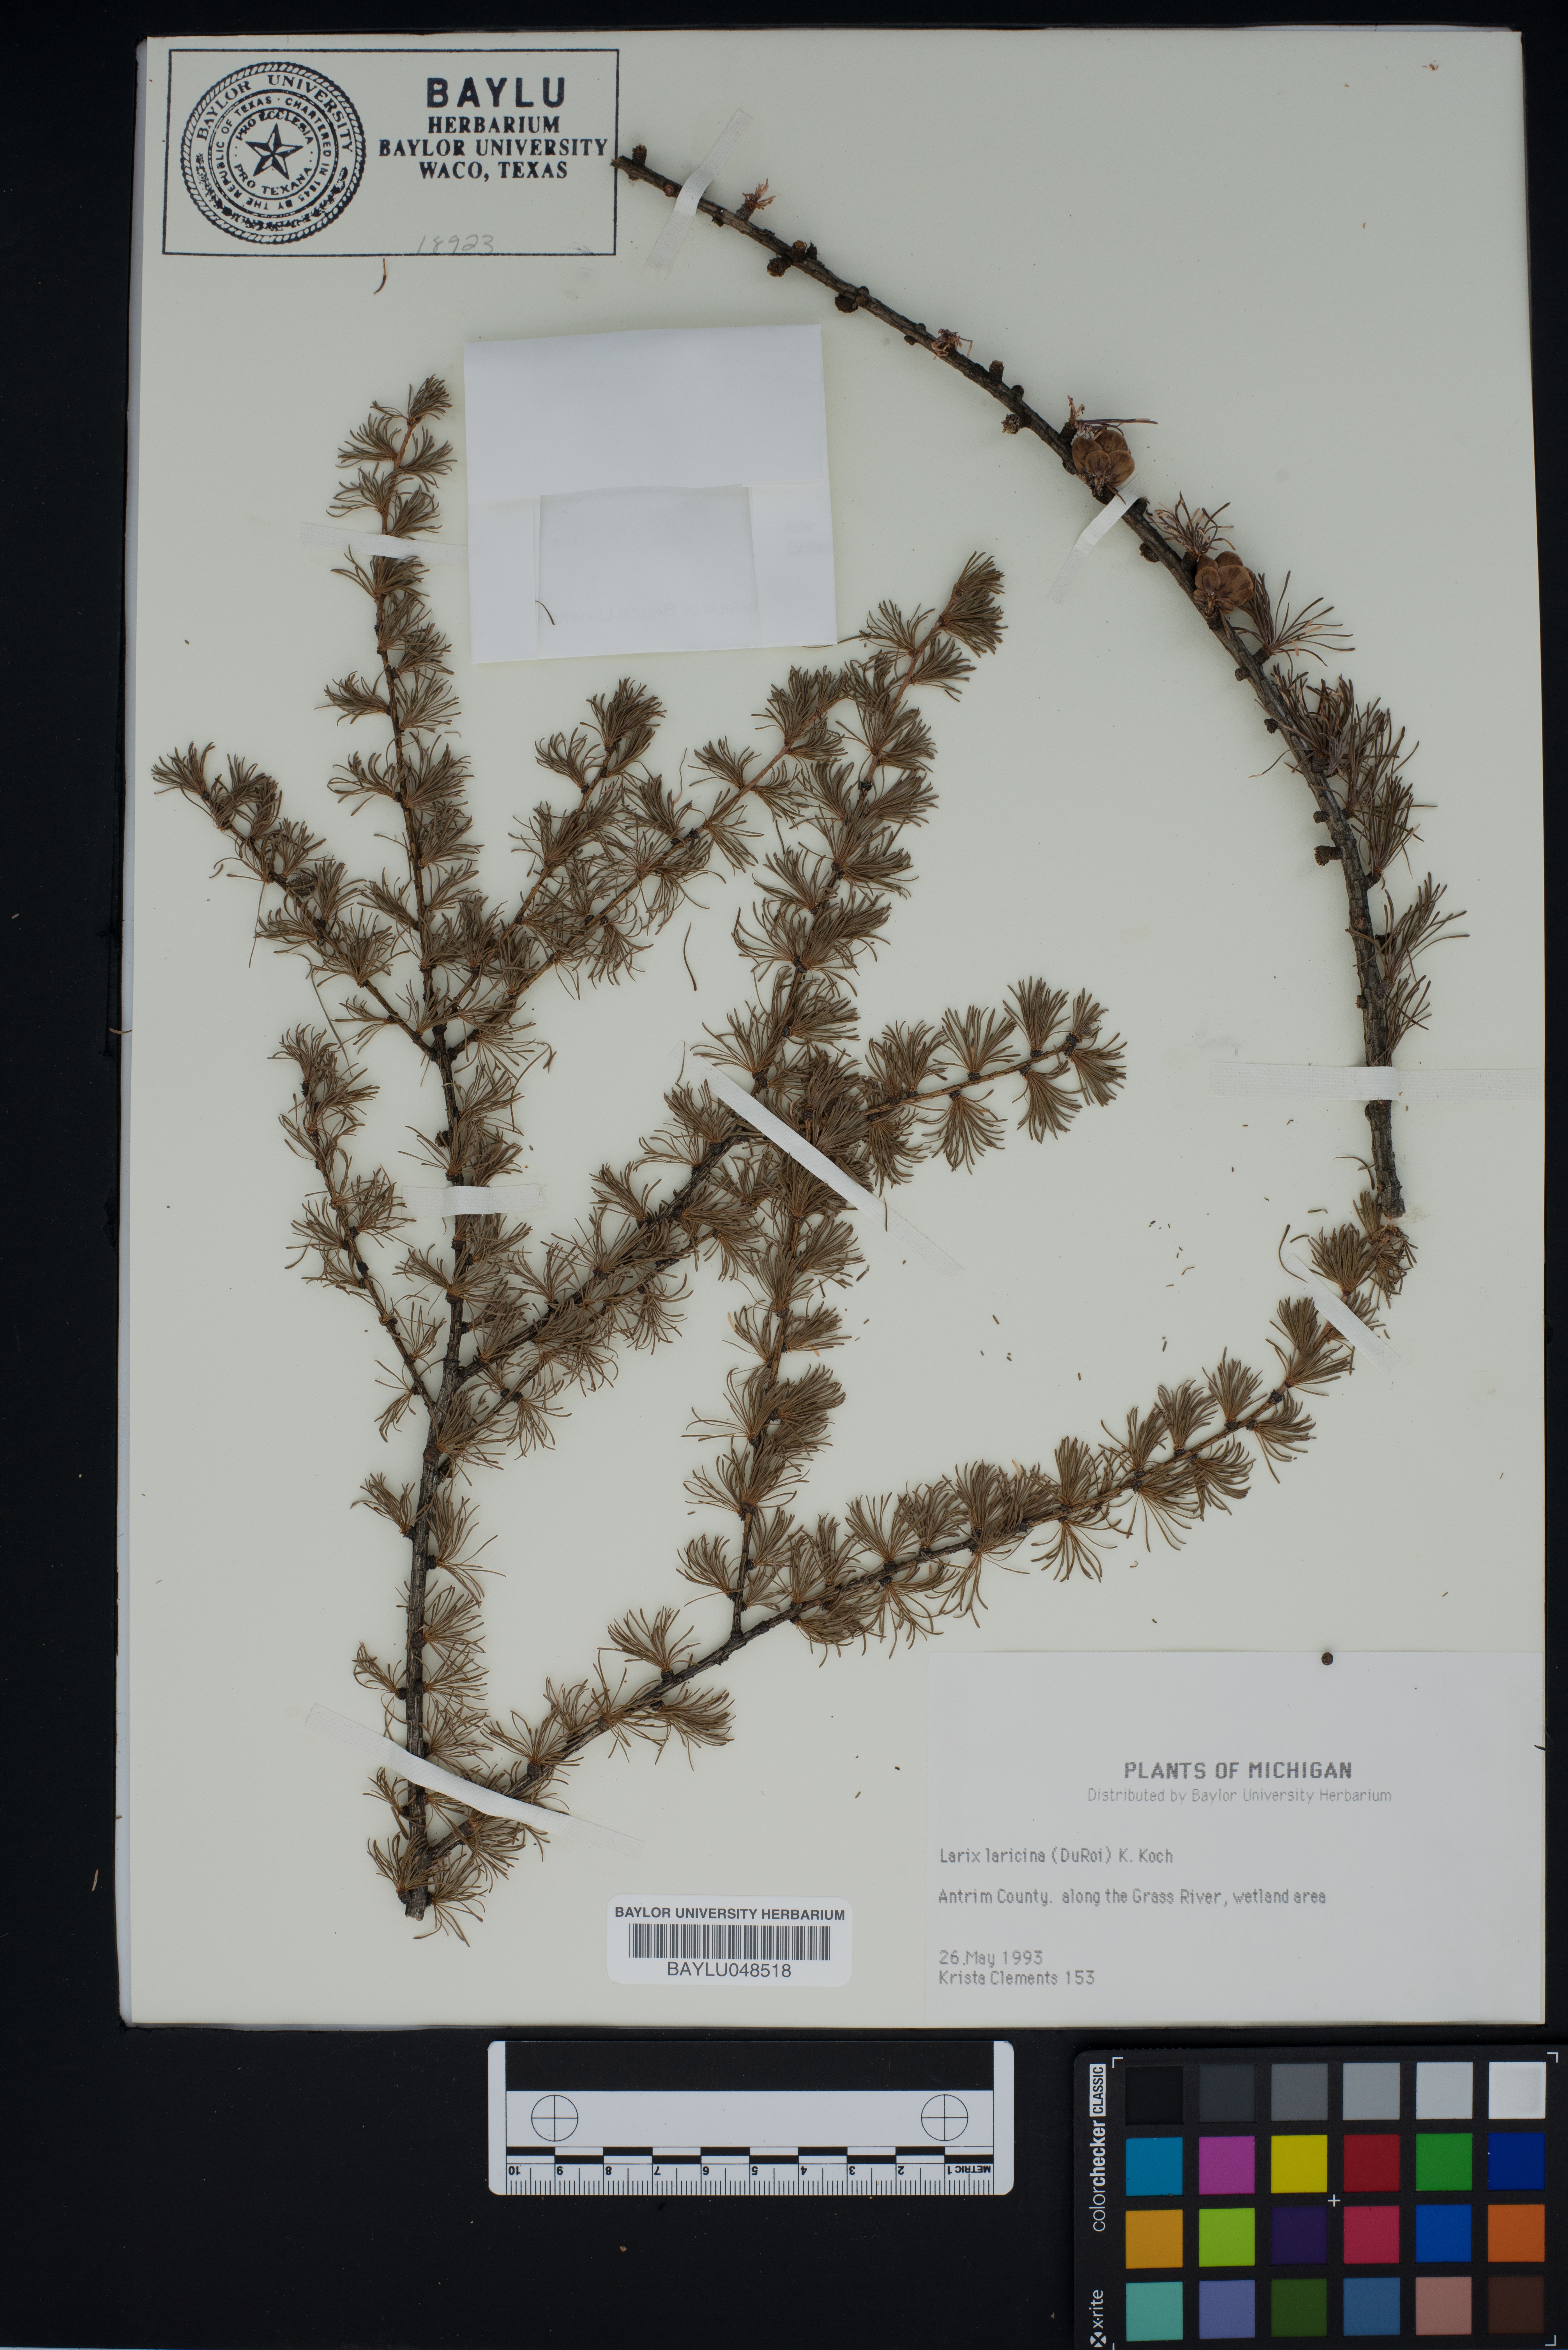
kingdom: Plantae
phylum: Tracheophyta
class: Pinopsida
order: Pinales
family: Pinaceae
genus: Larix
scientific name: Larix laricina
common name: American larch
